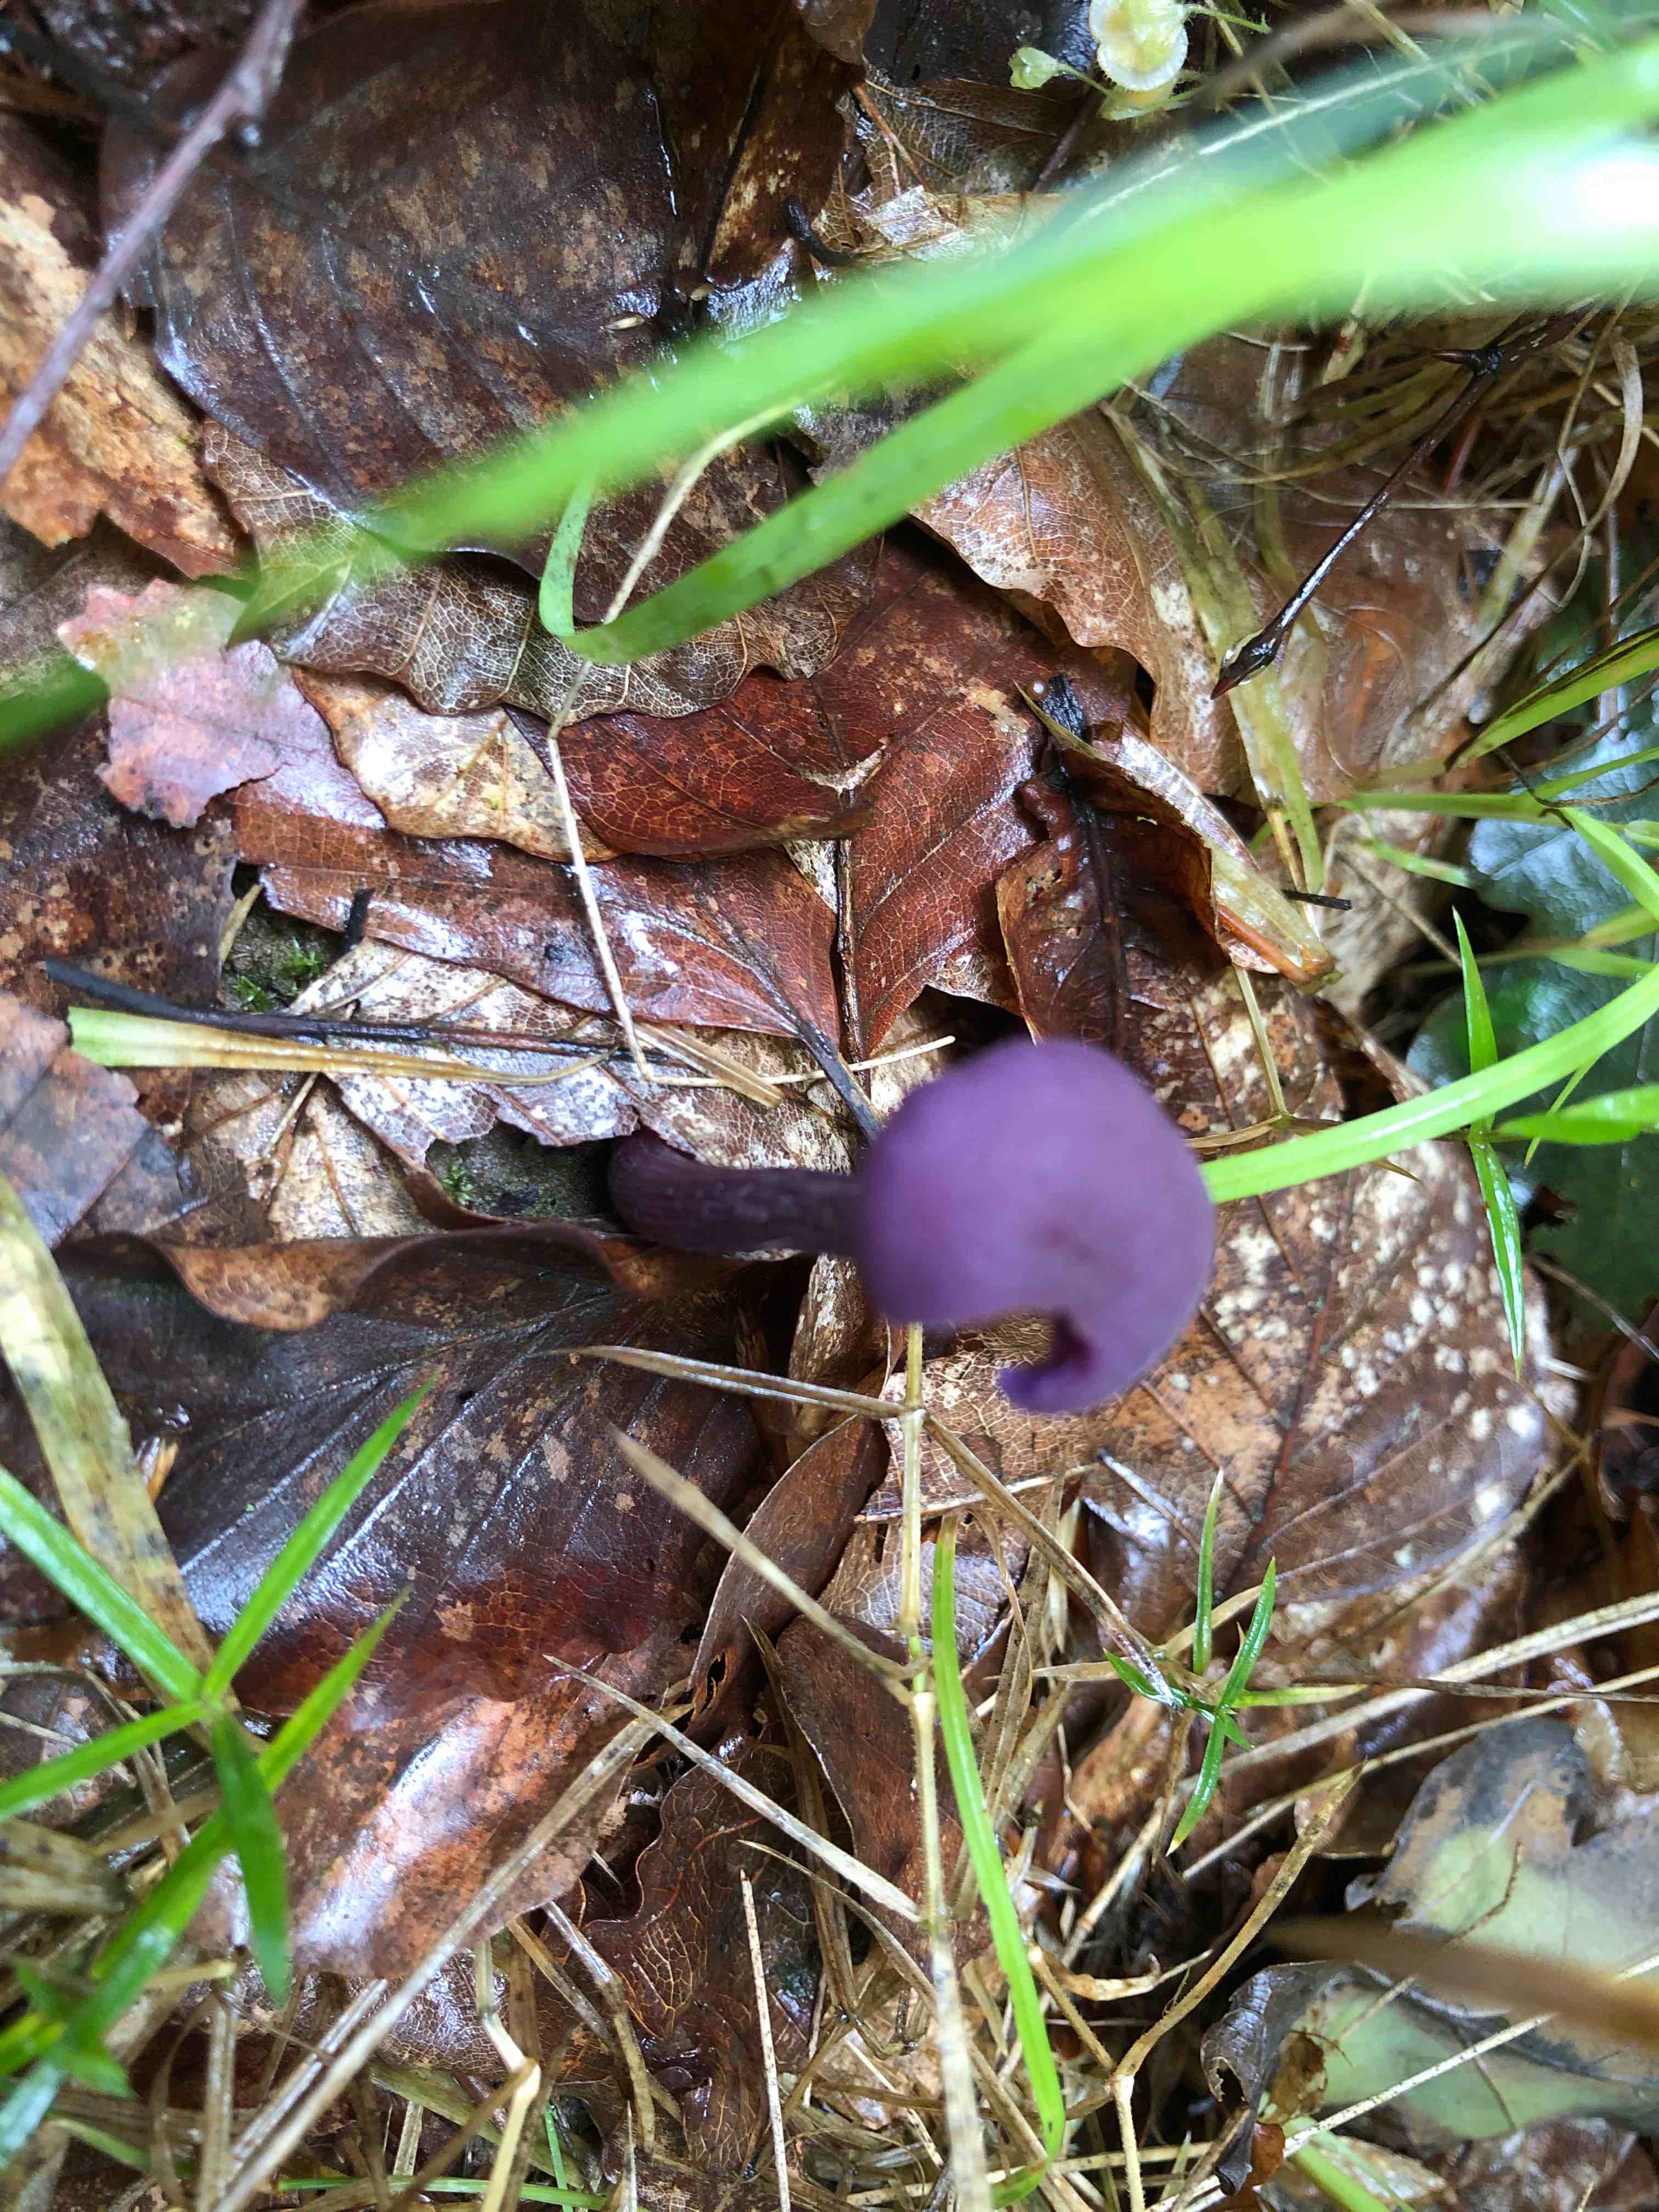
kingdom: Fungi
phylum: Basidiomycota
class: Agaricomycetes
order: Agaricales
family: Hydnangiaceae
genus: Laccaria
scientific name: Laccaria amethystina
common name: violet ametysthat
